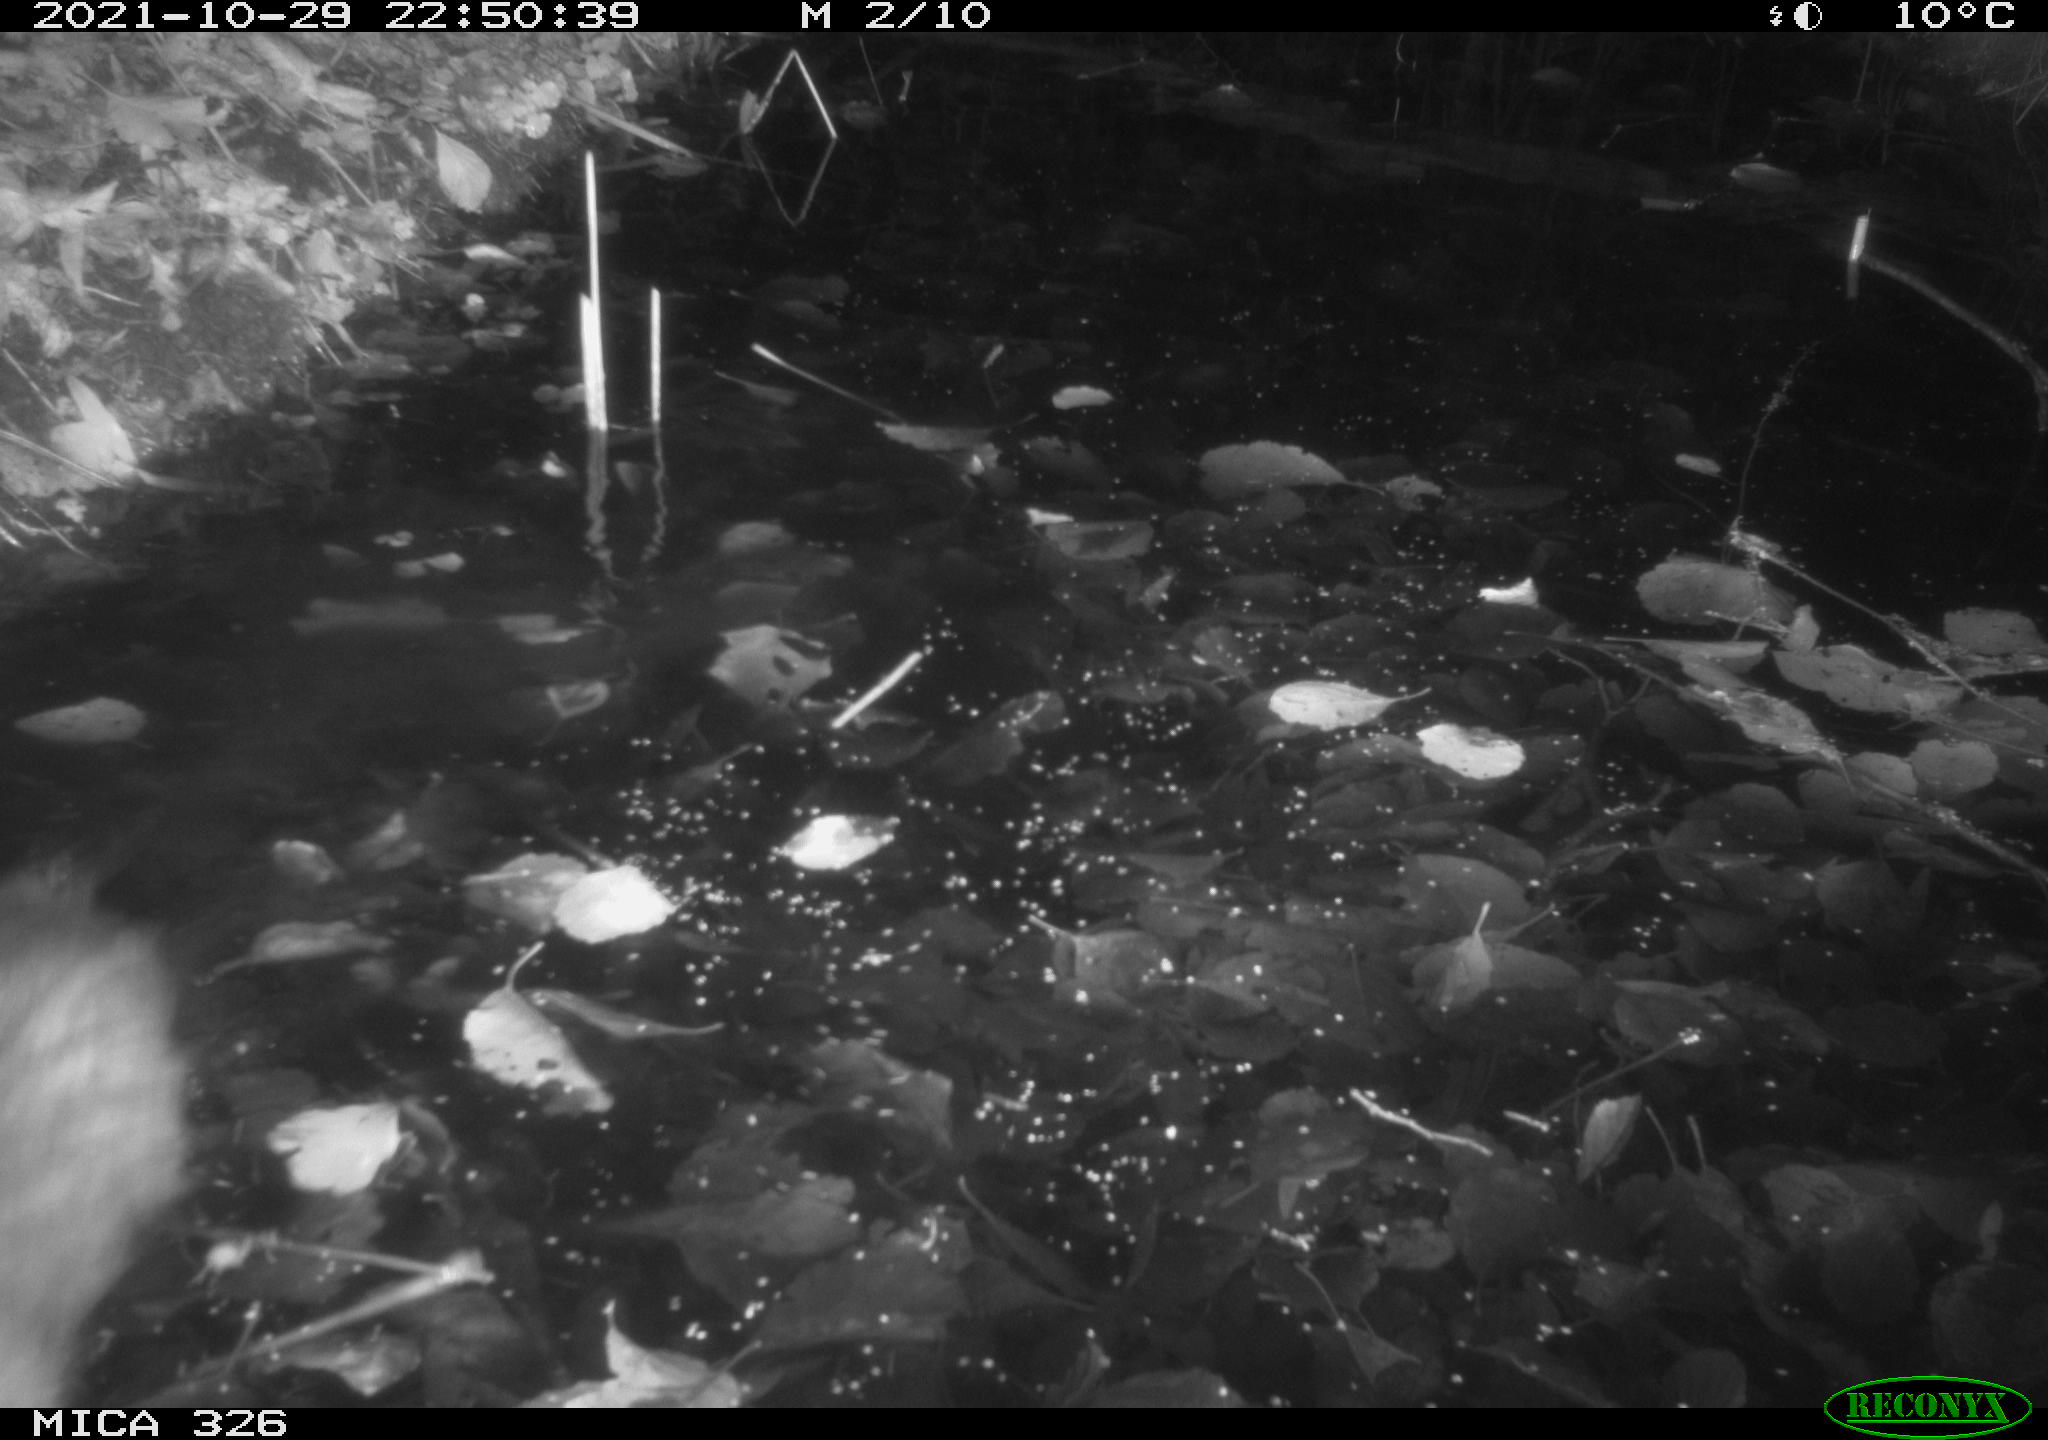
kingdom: Animalia
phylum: Chordata
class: Mammalia
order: Rodentia
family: Myocastoridae
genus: Myocastor
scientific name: Myocastor coypus
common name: Coypu
